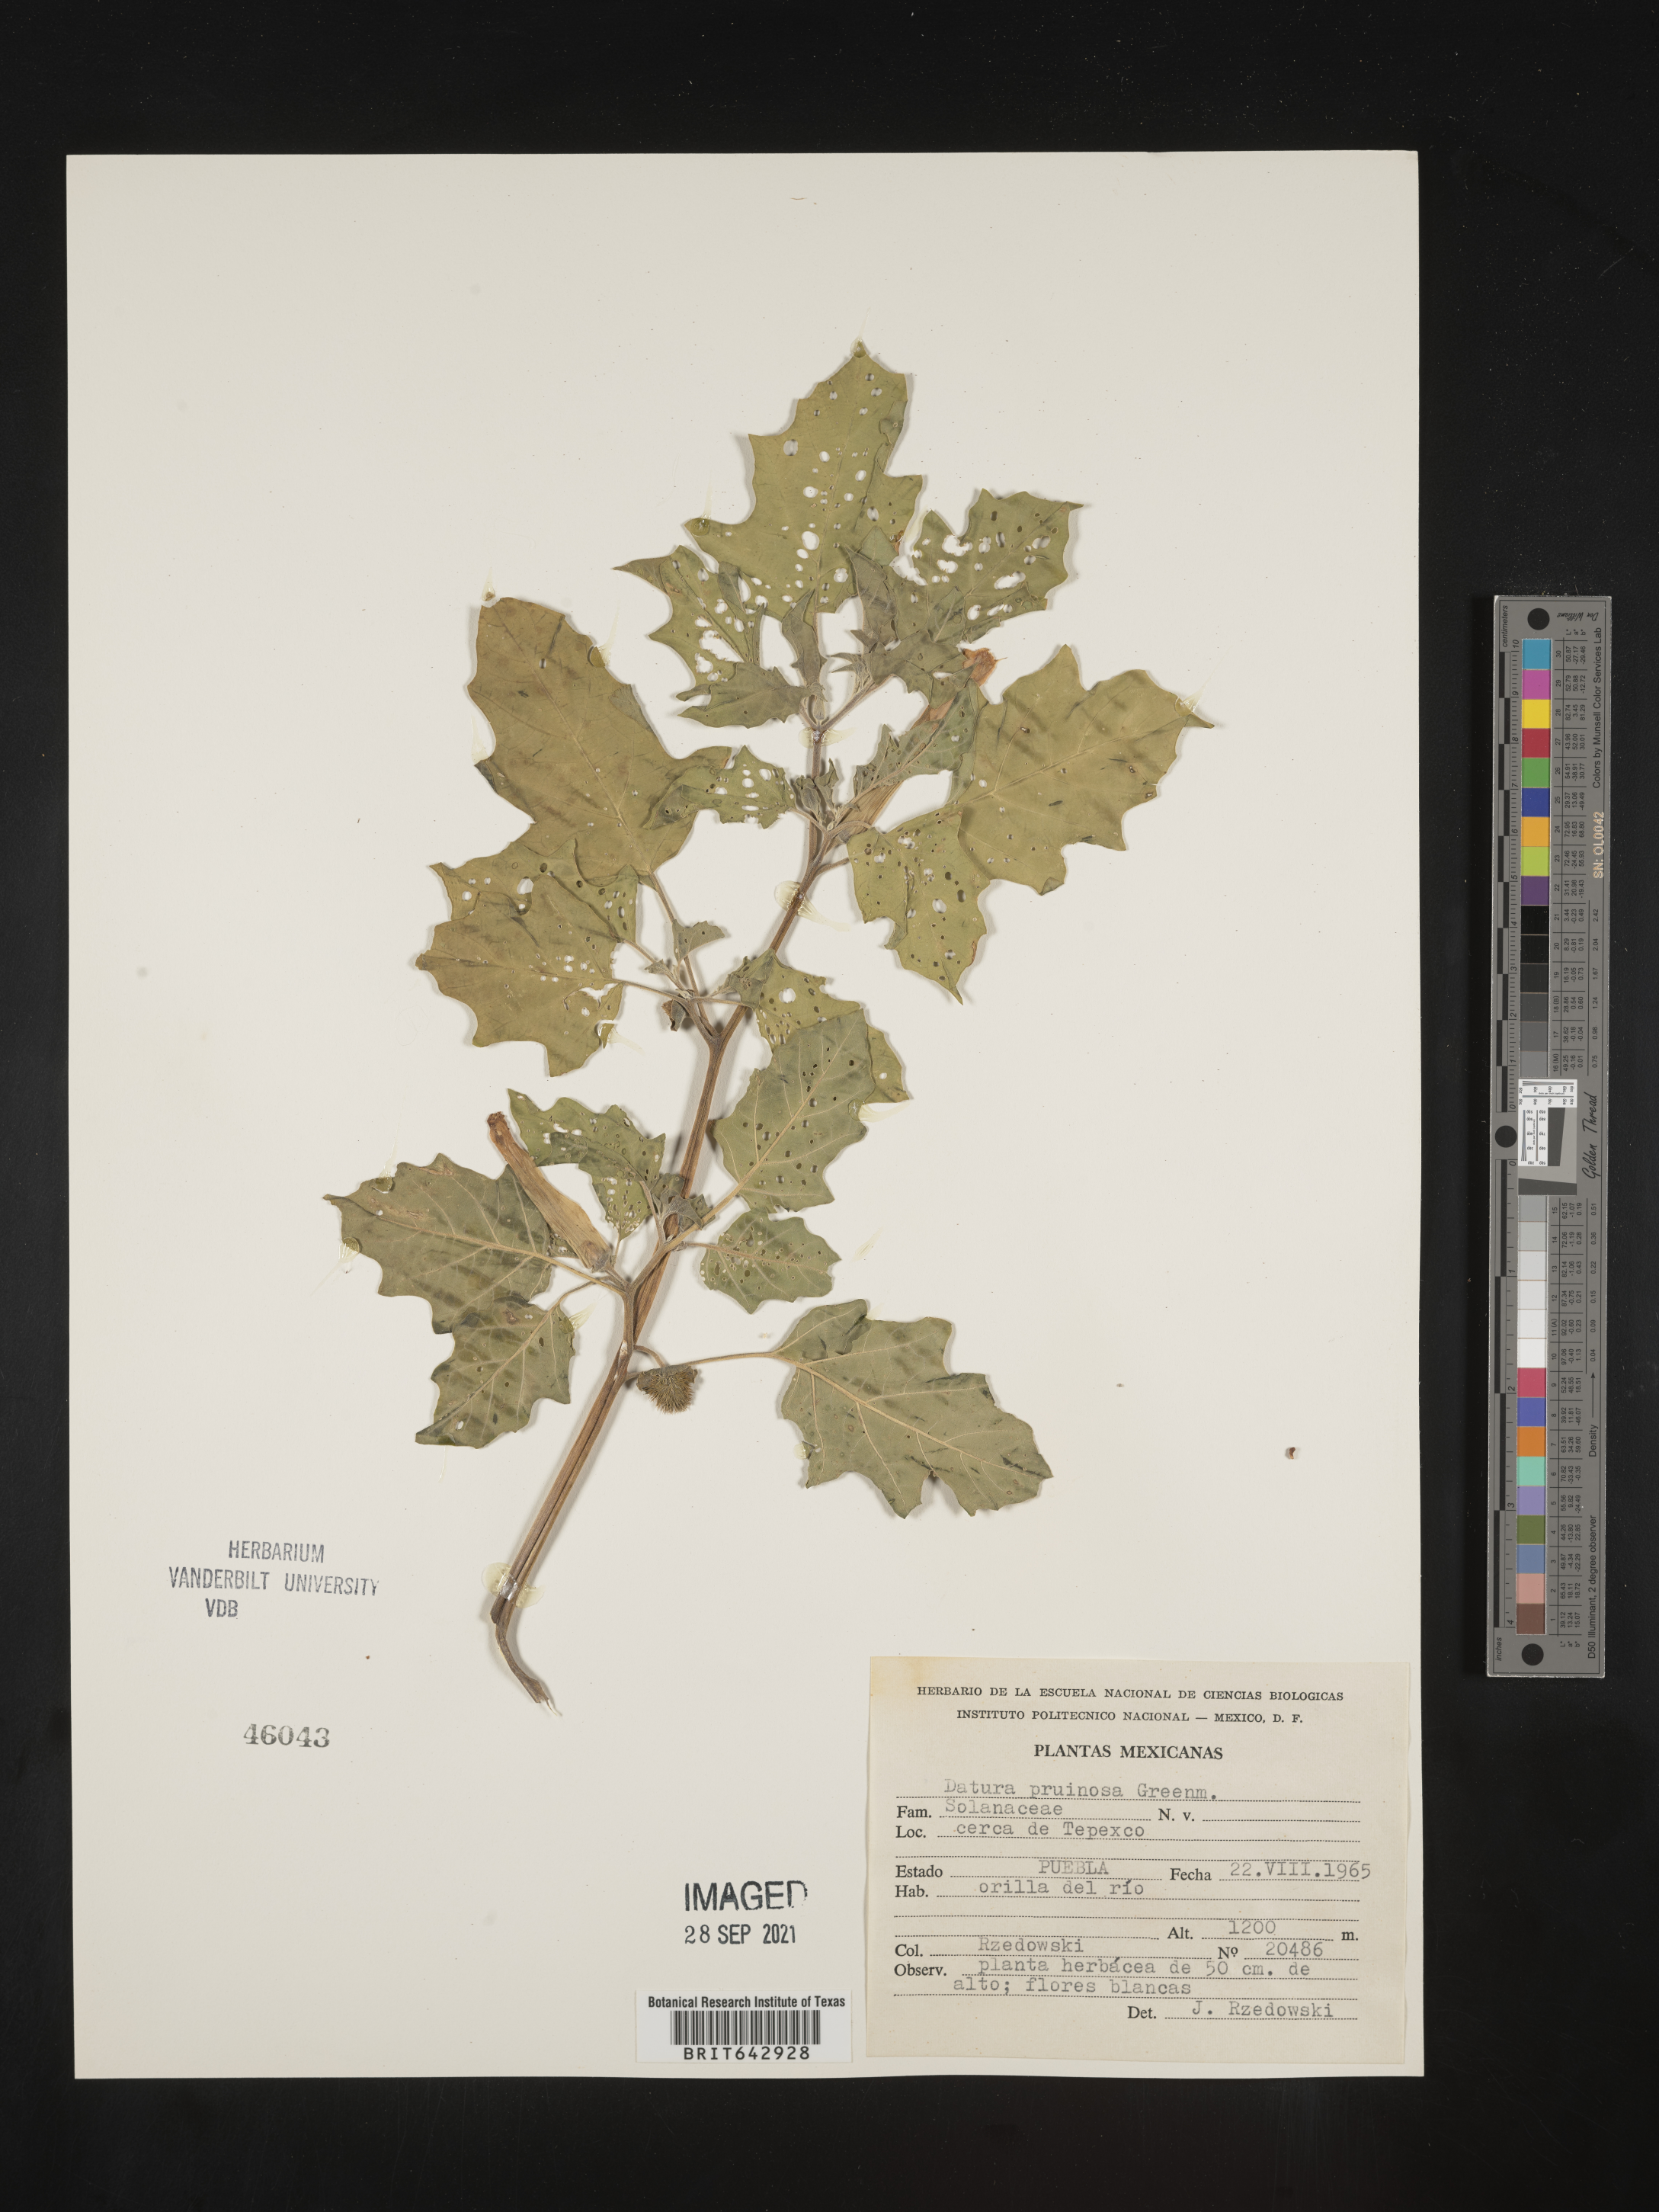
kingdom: Plantae
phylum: Tracheophyta
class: Magnoliopsida
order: Solanales
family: Solanaceae
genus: Datura
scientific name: Datura
